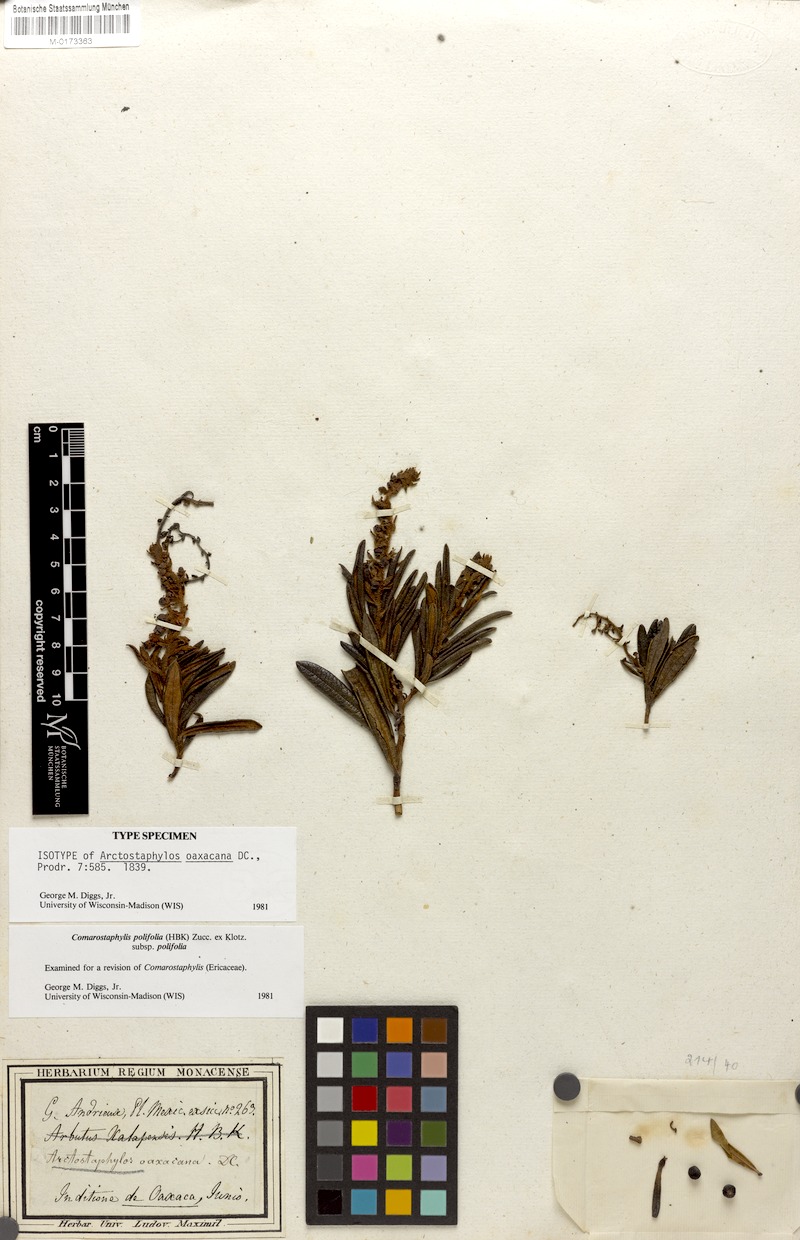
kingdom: Plantae
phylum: Tracheophyta
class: Magnoliopsida
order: Ericales
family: Ericaceae
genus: Comarostaphylis
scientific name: Comarostaphylis polifolia
